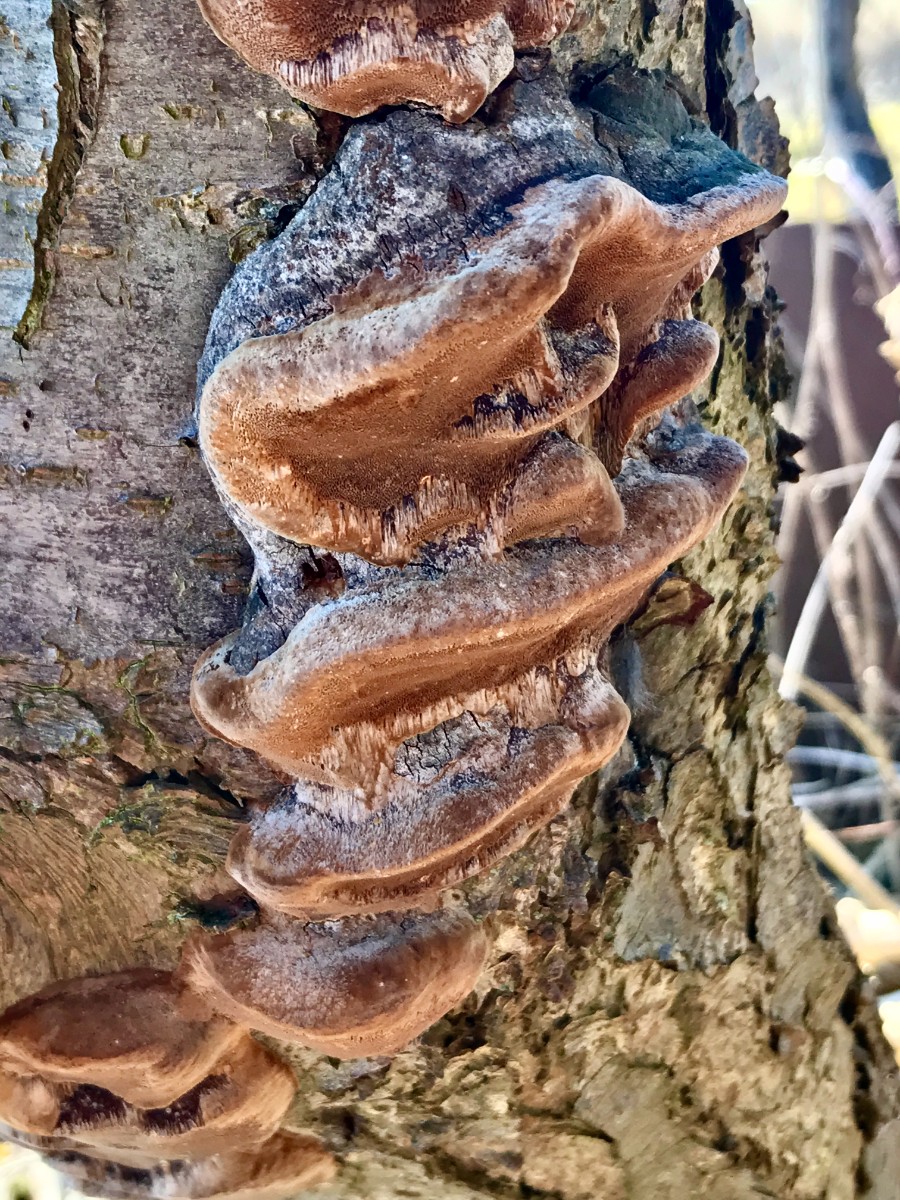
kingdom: Fungi
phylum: Basidiomycota
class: Agaricomycetes
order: Hymenochaetales
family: Hymenochaetaceae
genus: Phellinus
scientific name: Phellinus pomaceus
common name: blomme-ildporesvamp
